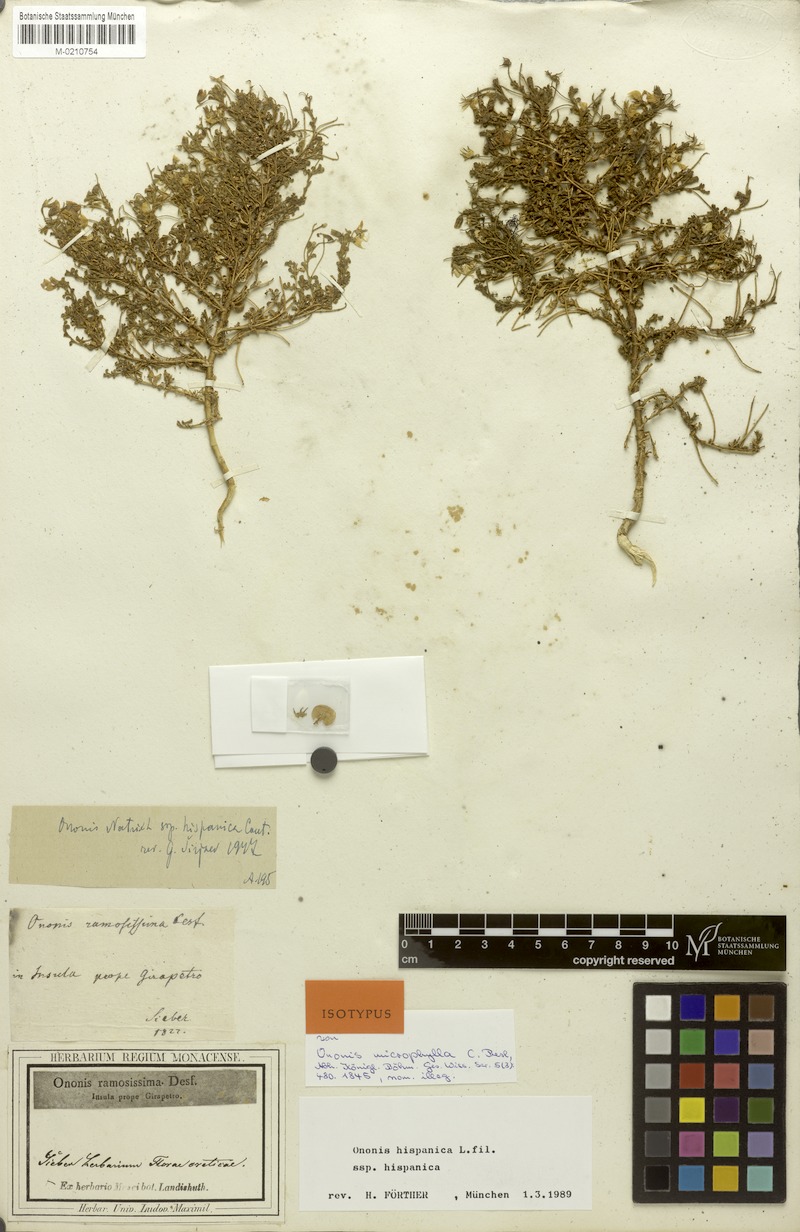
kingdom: Plantae
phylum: Tracheophyta
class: Magnoliopsida
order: Fabales
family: Fabaceae
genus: Ononis
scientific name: Ononis natrix
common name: Yellow restharrow
